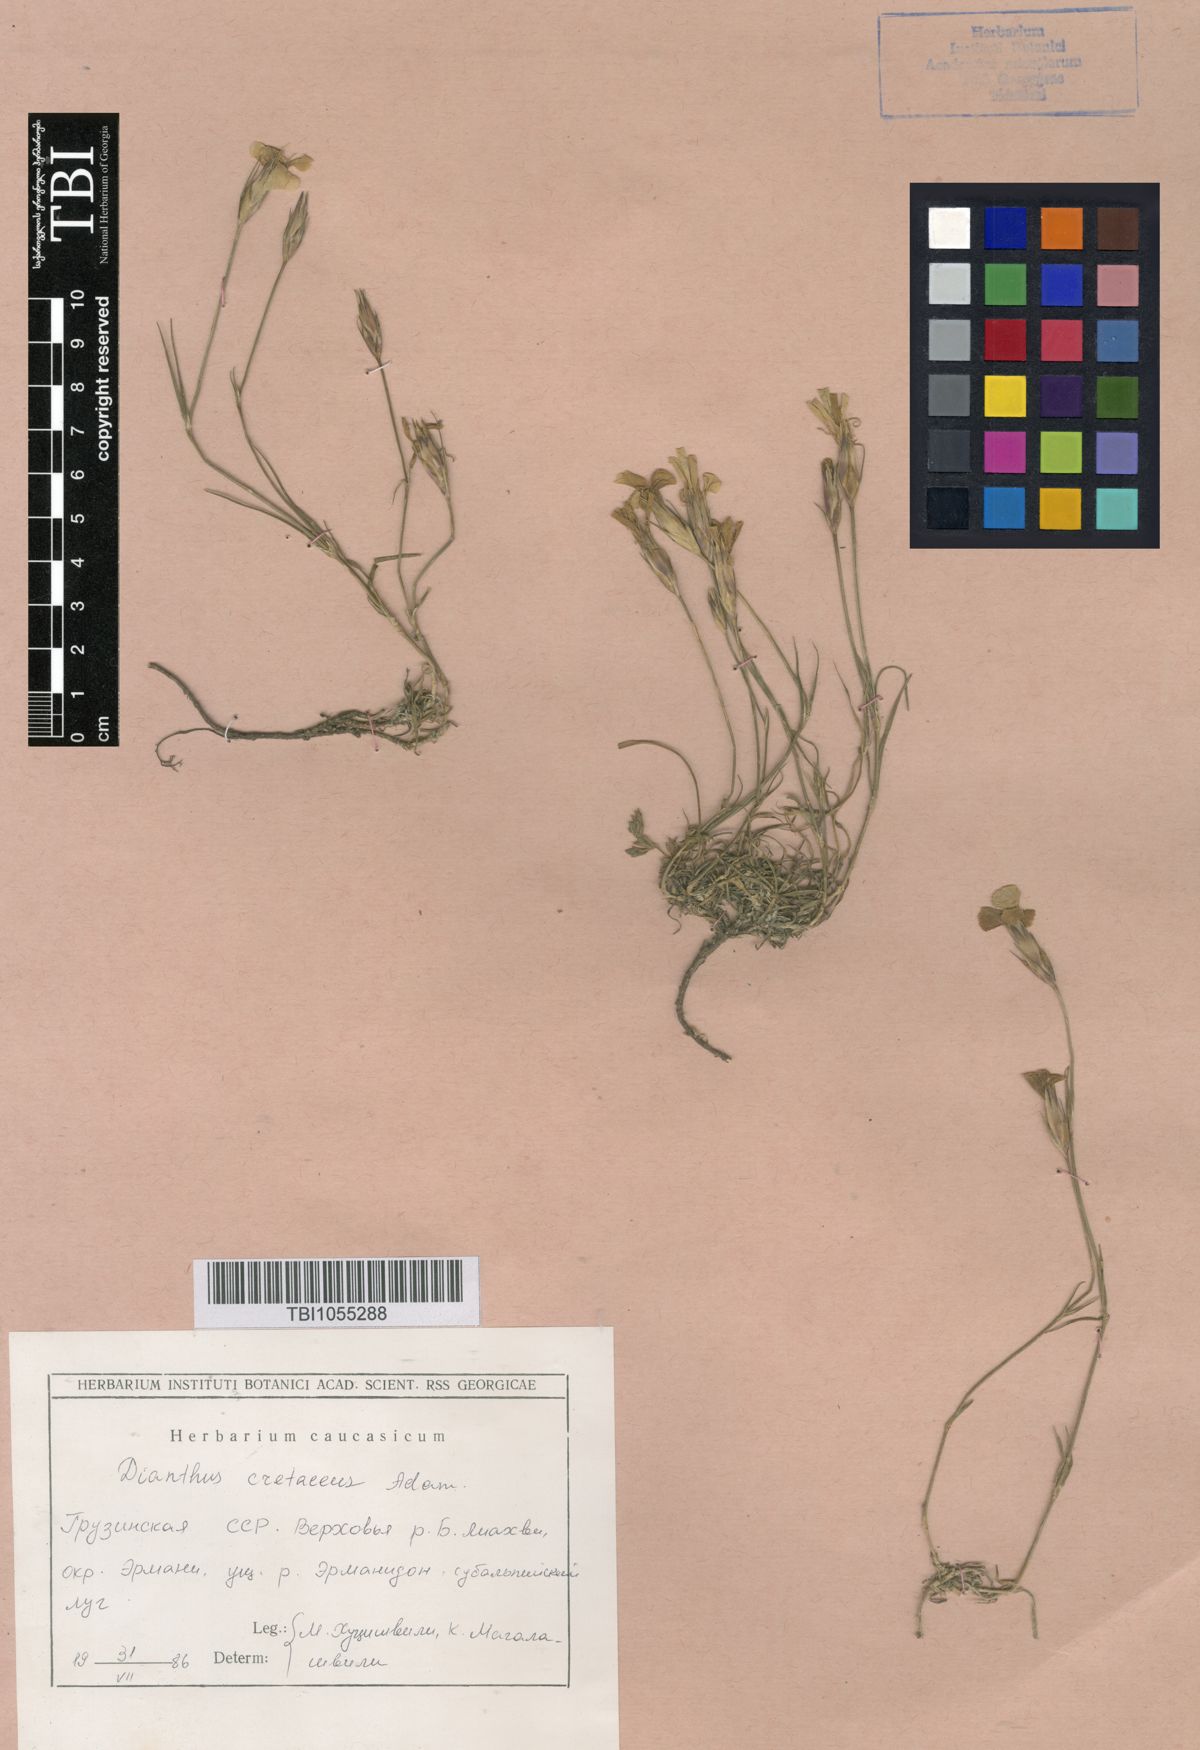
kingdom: Plantae
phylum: Tracheophyta
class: Magnoliopsida
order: Caryophyllales
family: Caryophyllaceae
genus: Dianthus
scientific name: Dianthus cretaceus
